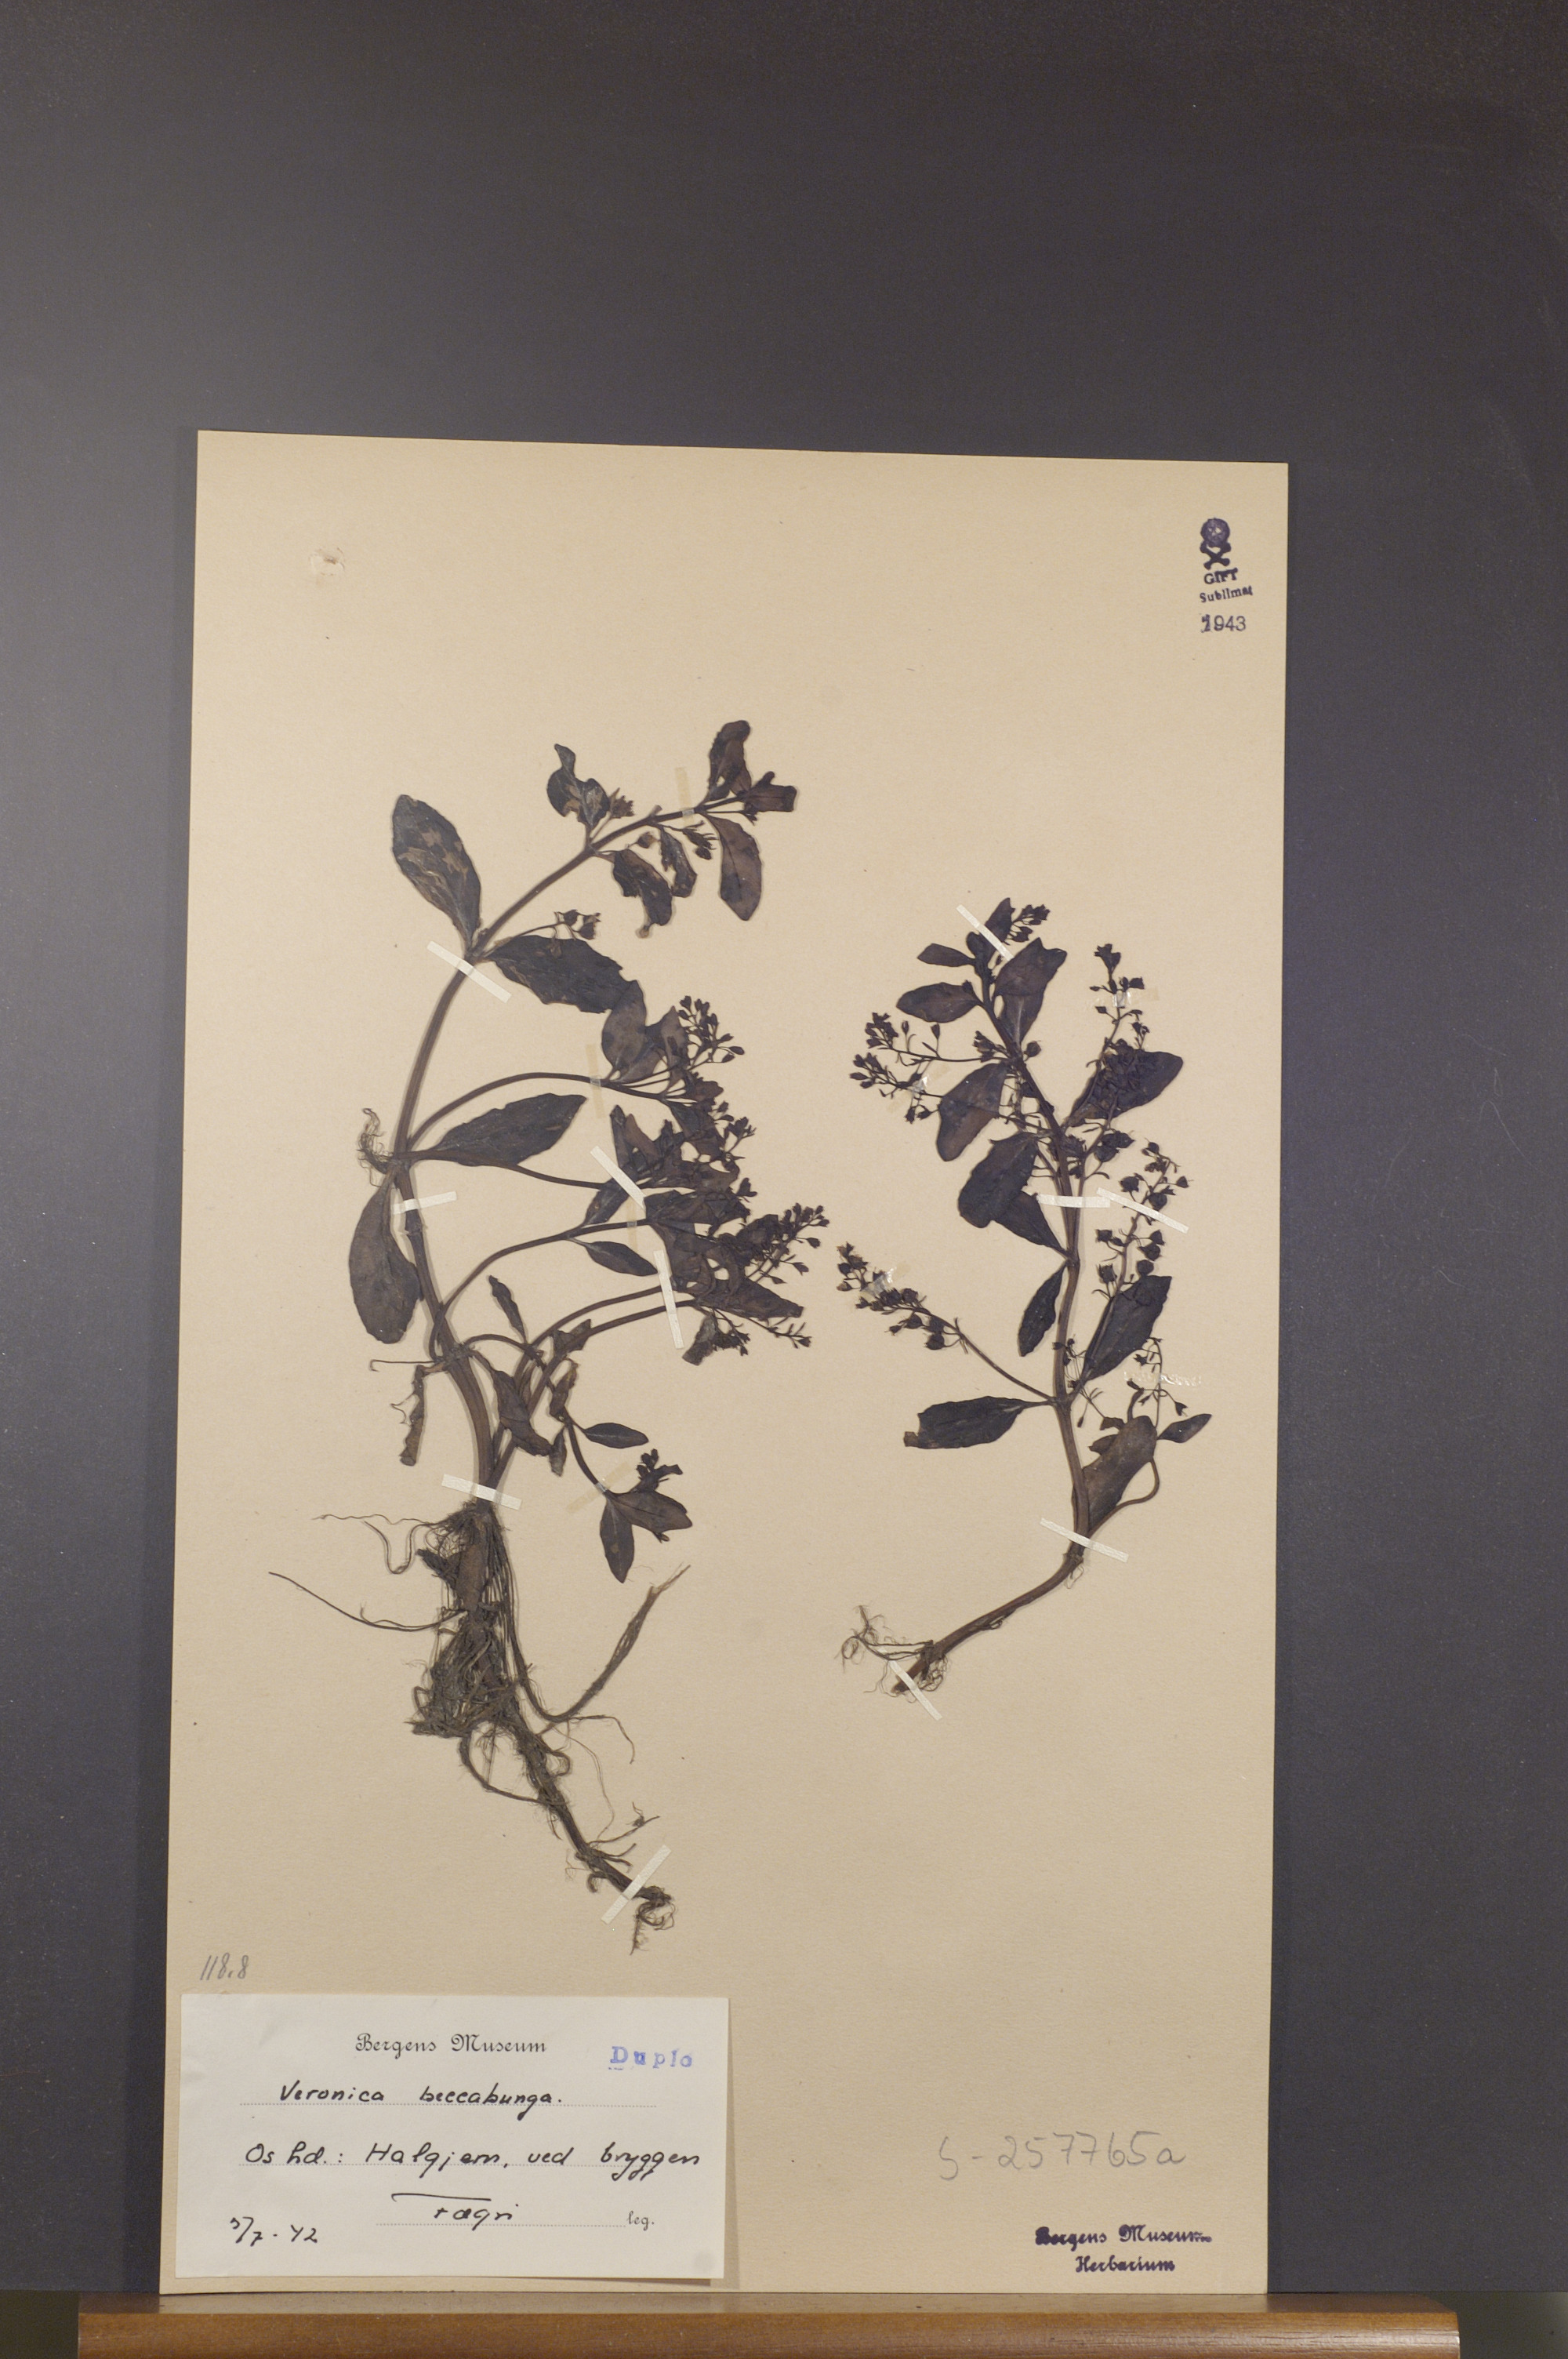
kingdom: Plantae
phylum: Tracheophyta
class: Magnoliopsida
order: Lamiales
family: Plantaginaceae
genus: Veronica
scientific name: Veronica beccabunga
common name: Brooklime
